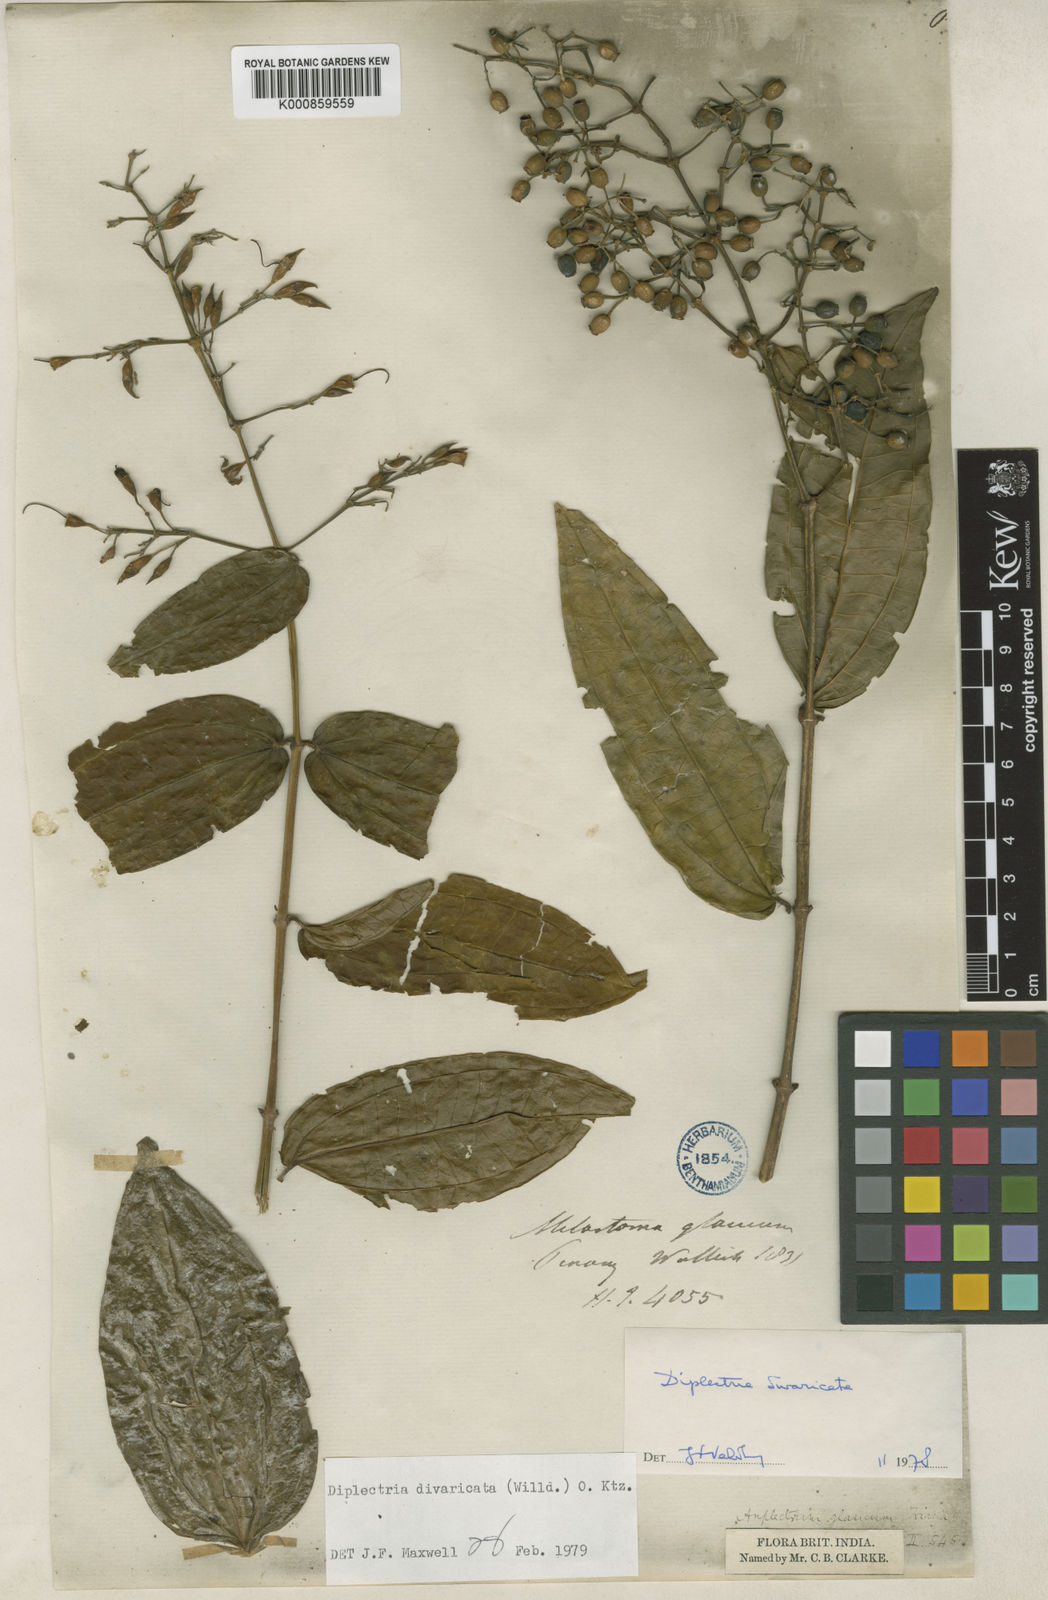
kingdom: Plantae
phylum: Tracheophyta
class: Magnoliopsida
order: Myrtales
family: Melastomataceae
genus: Diplectria
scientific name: Diplectria divaricata
